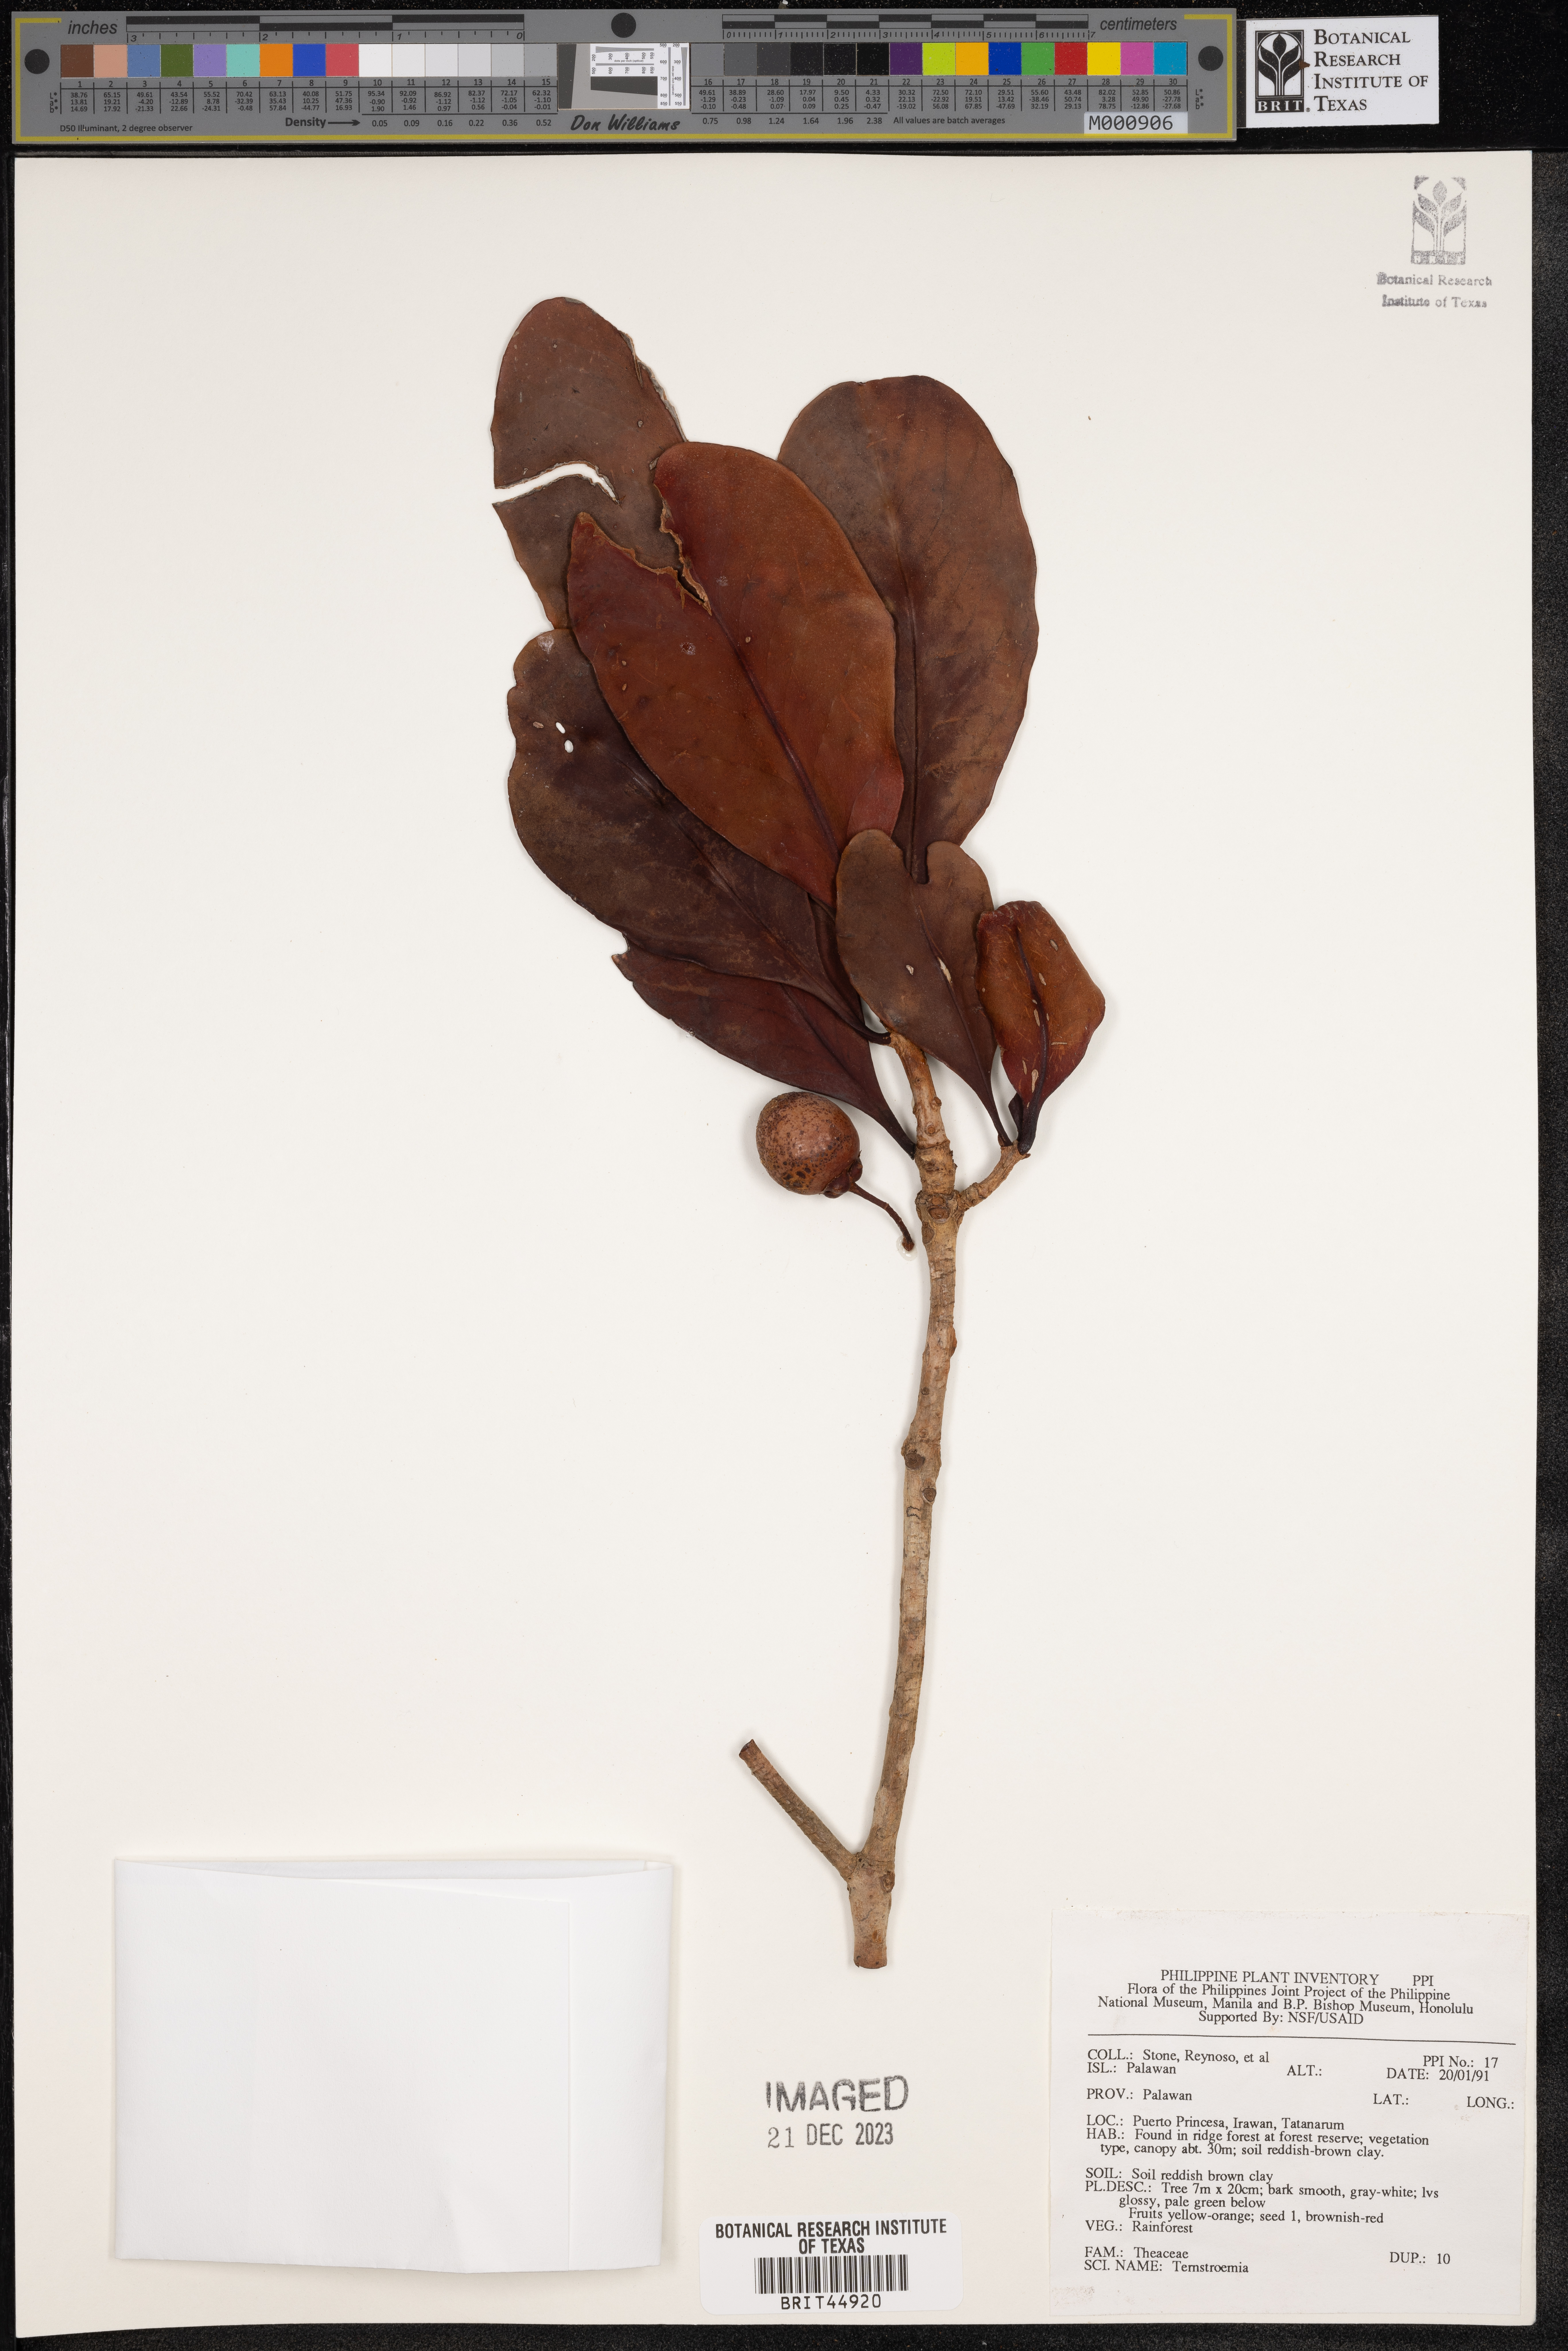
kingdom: Plantae
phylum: Tracheophyta
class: Magnoliopsida
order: Ericales
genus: Ternstroemia
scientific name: Ternstroemia
